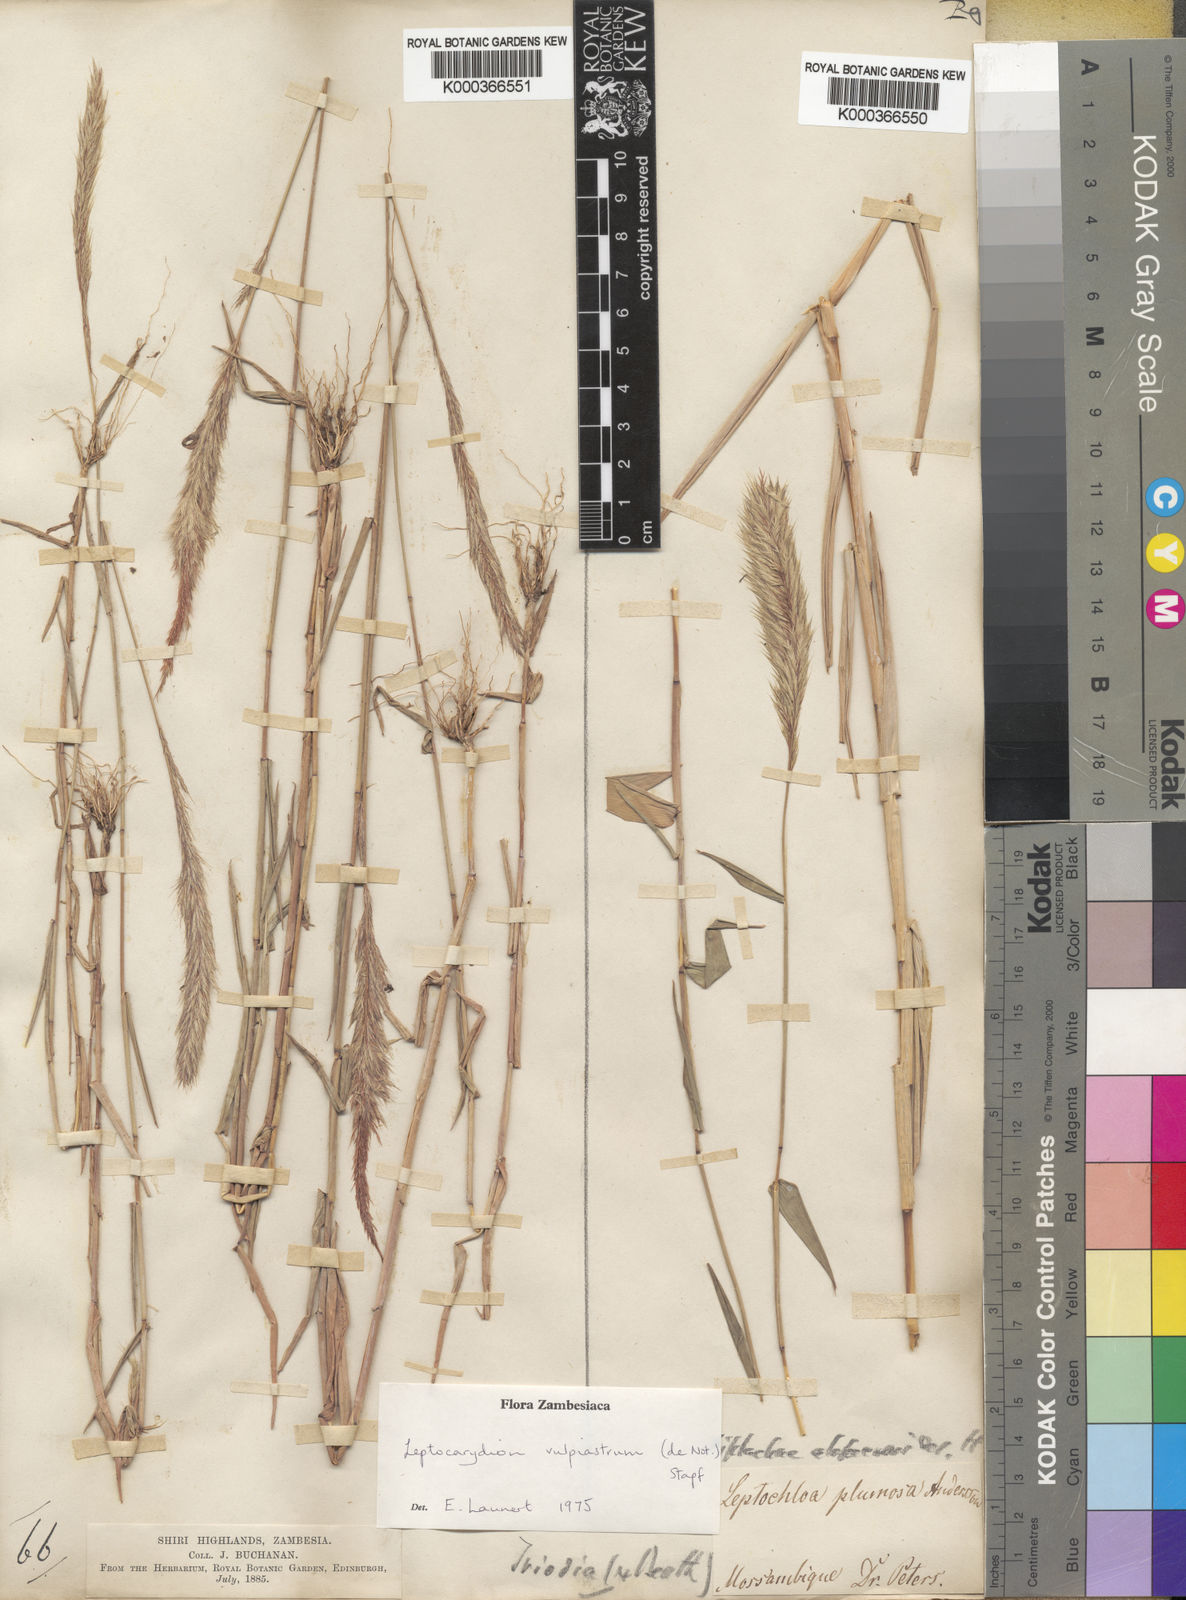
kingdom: Plantae
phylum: Tracheophyta
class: Liliopsida
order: Poales
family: Poaceae
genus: Leptocarydion
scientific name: Leptocarydion vulpiastrum
